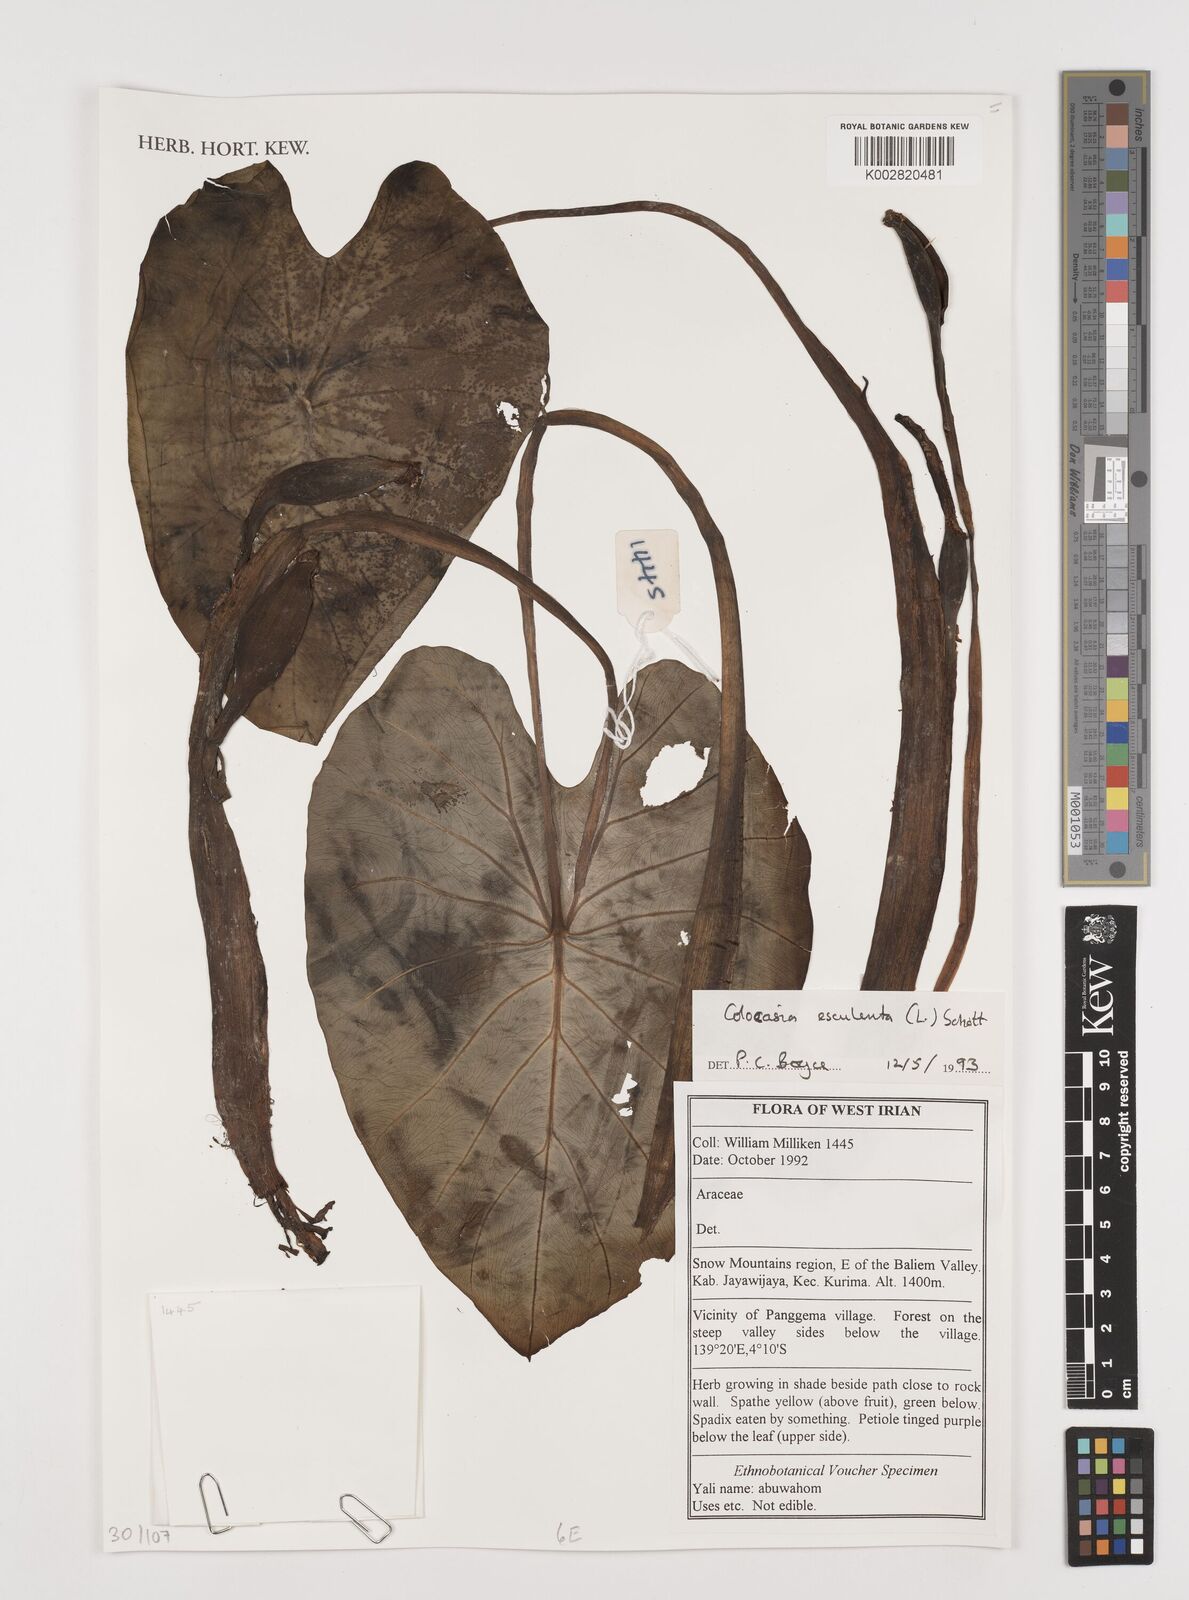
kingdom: Plantae
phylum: Tracheophyta
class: Liliopsida
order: Alismatales
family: Araceae
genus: Colocasia
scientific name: Colocasia esculenta
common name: Taro
